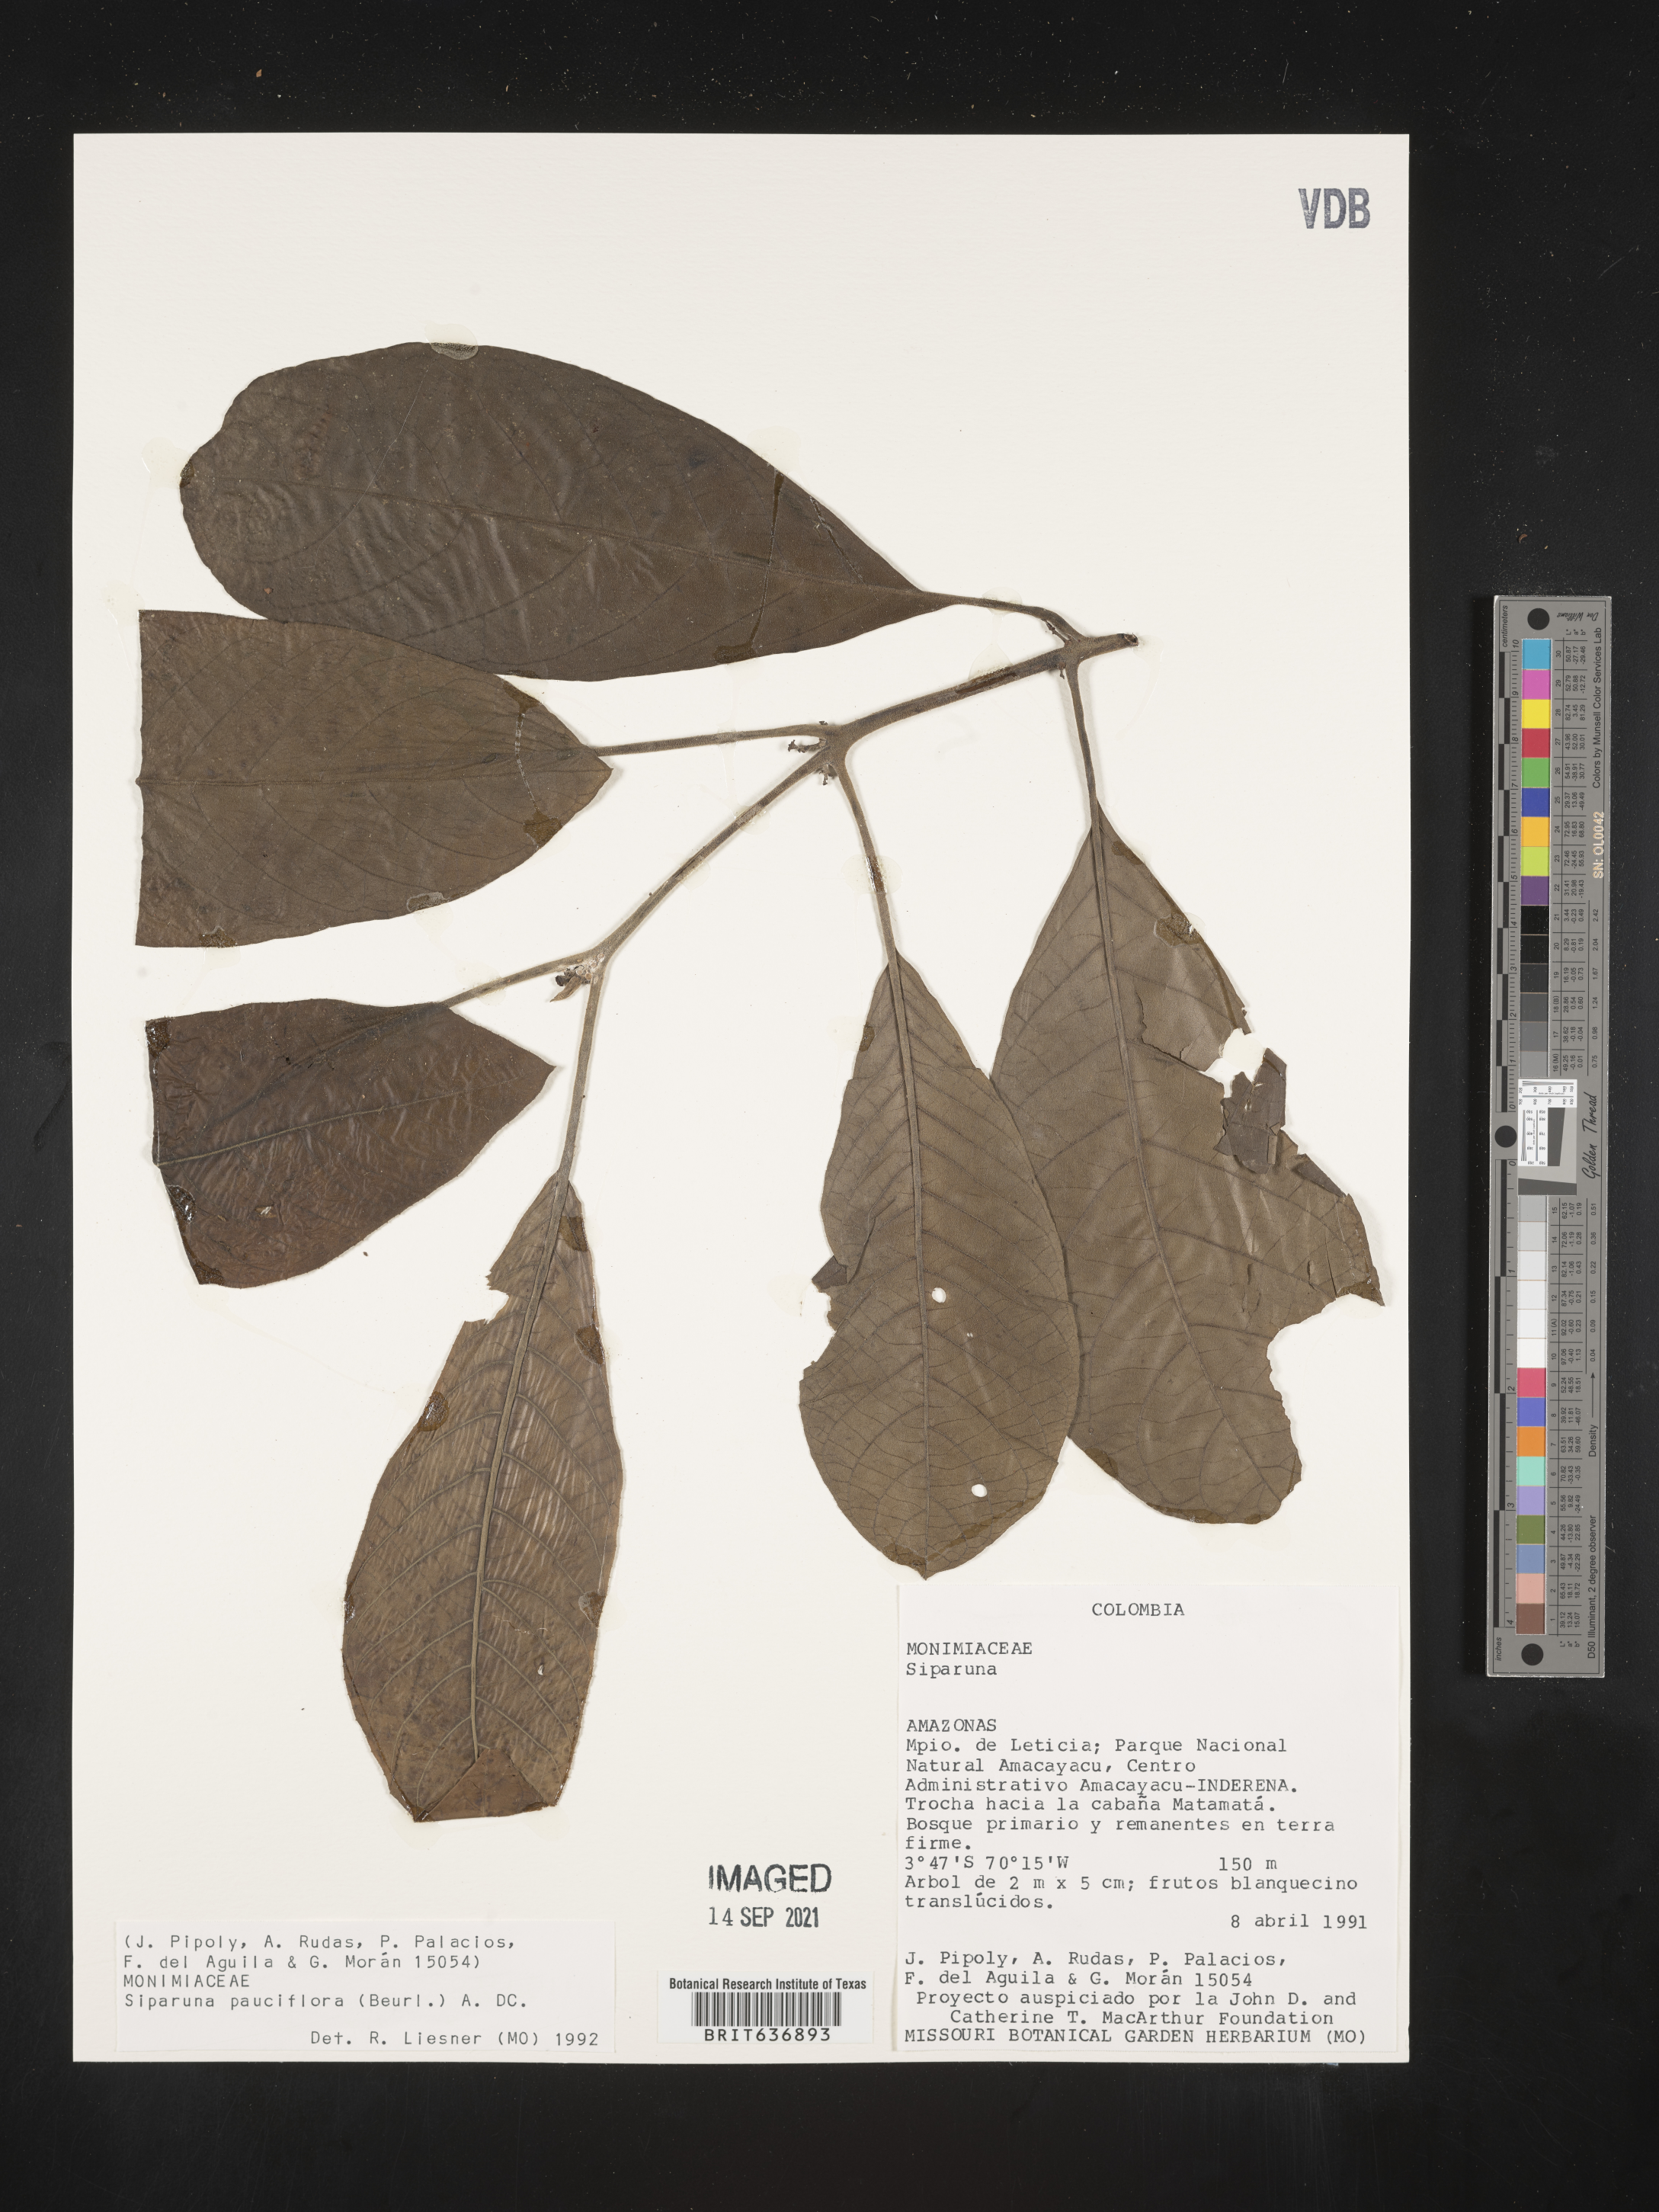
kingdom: Plantae
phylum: Tracheophyta
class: Magnoliopsida
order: Laurales
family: Siparunaceae
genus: Siparuna
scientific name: Siparuna
